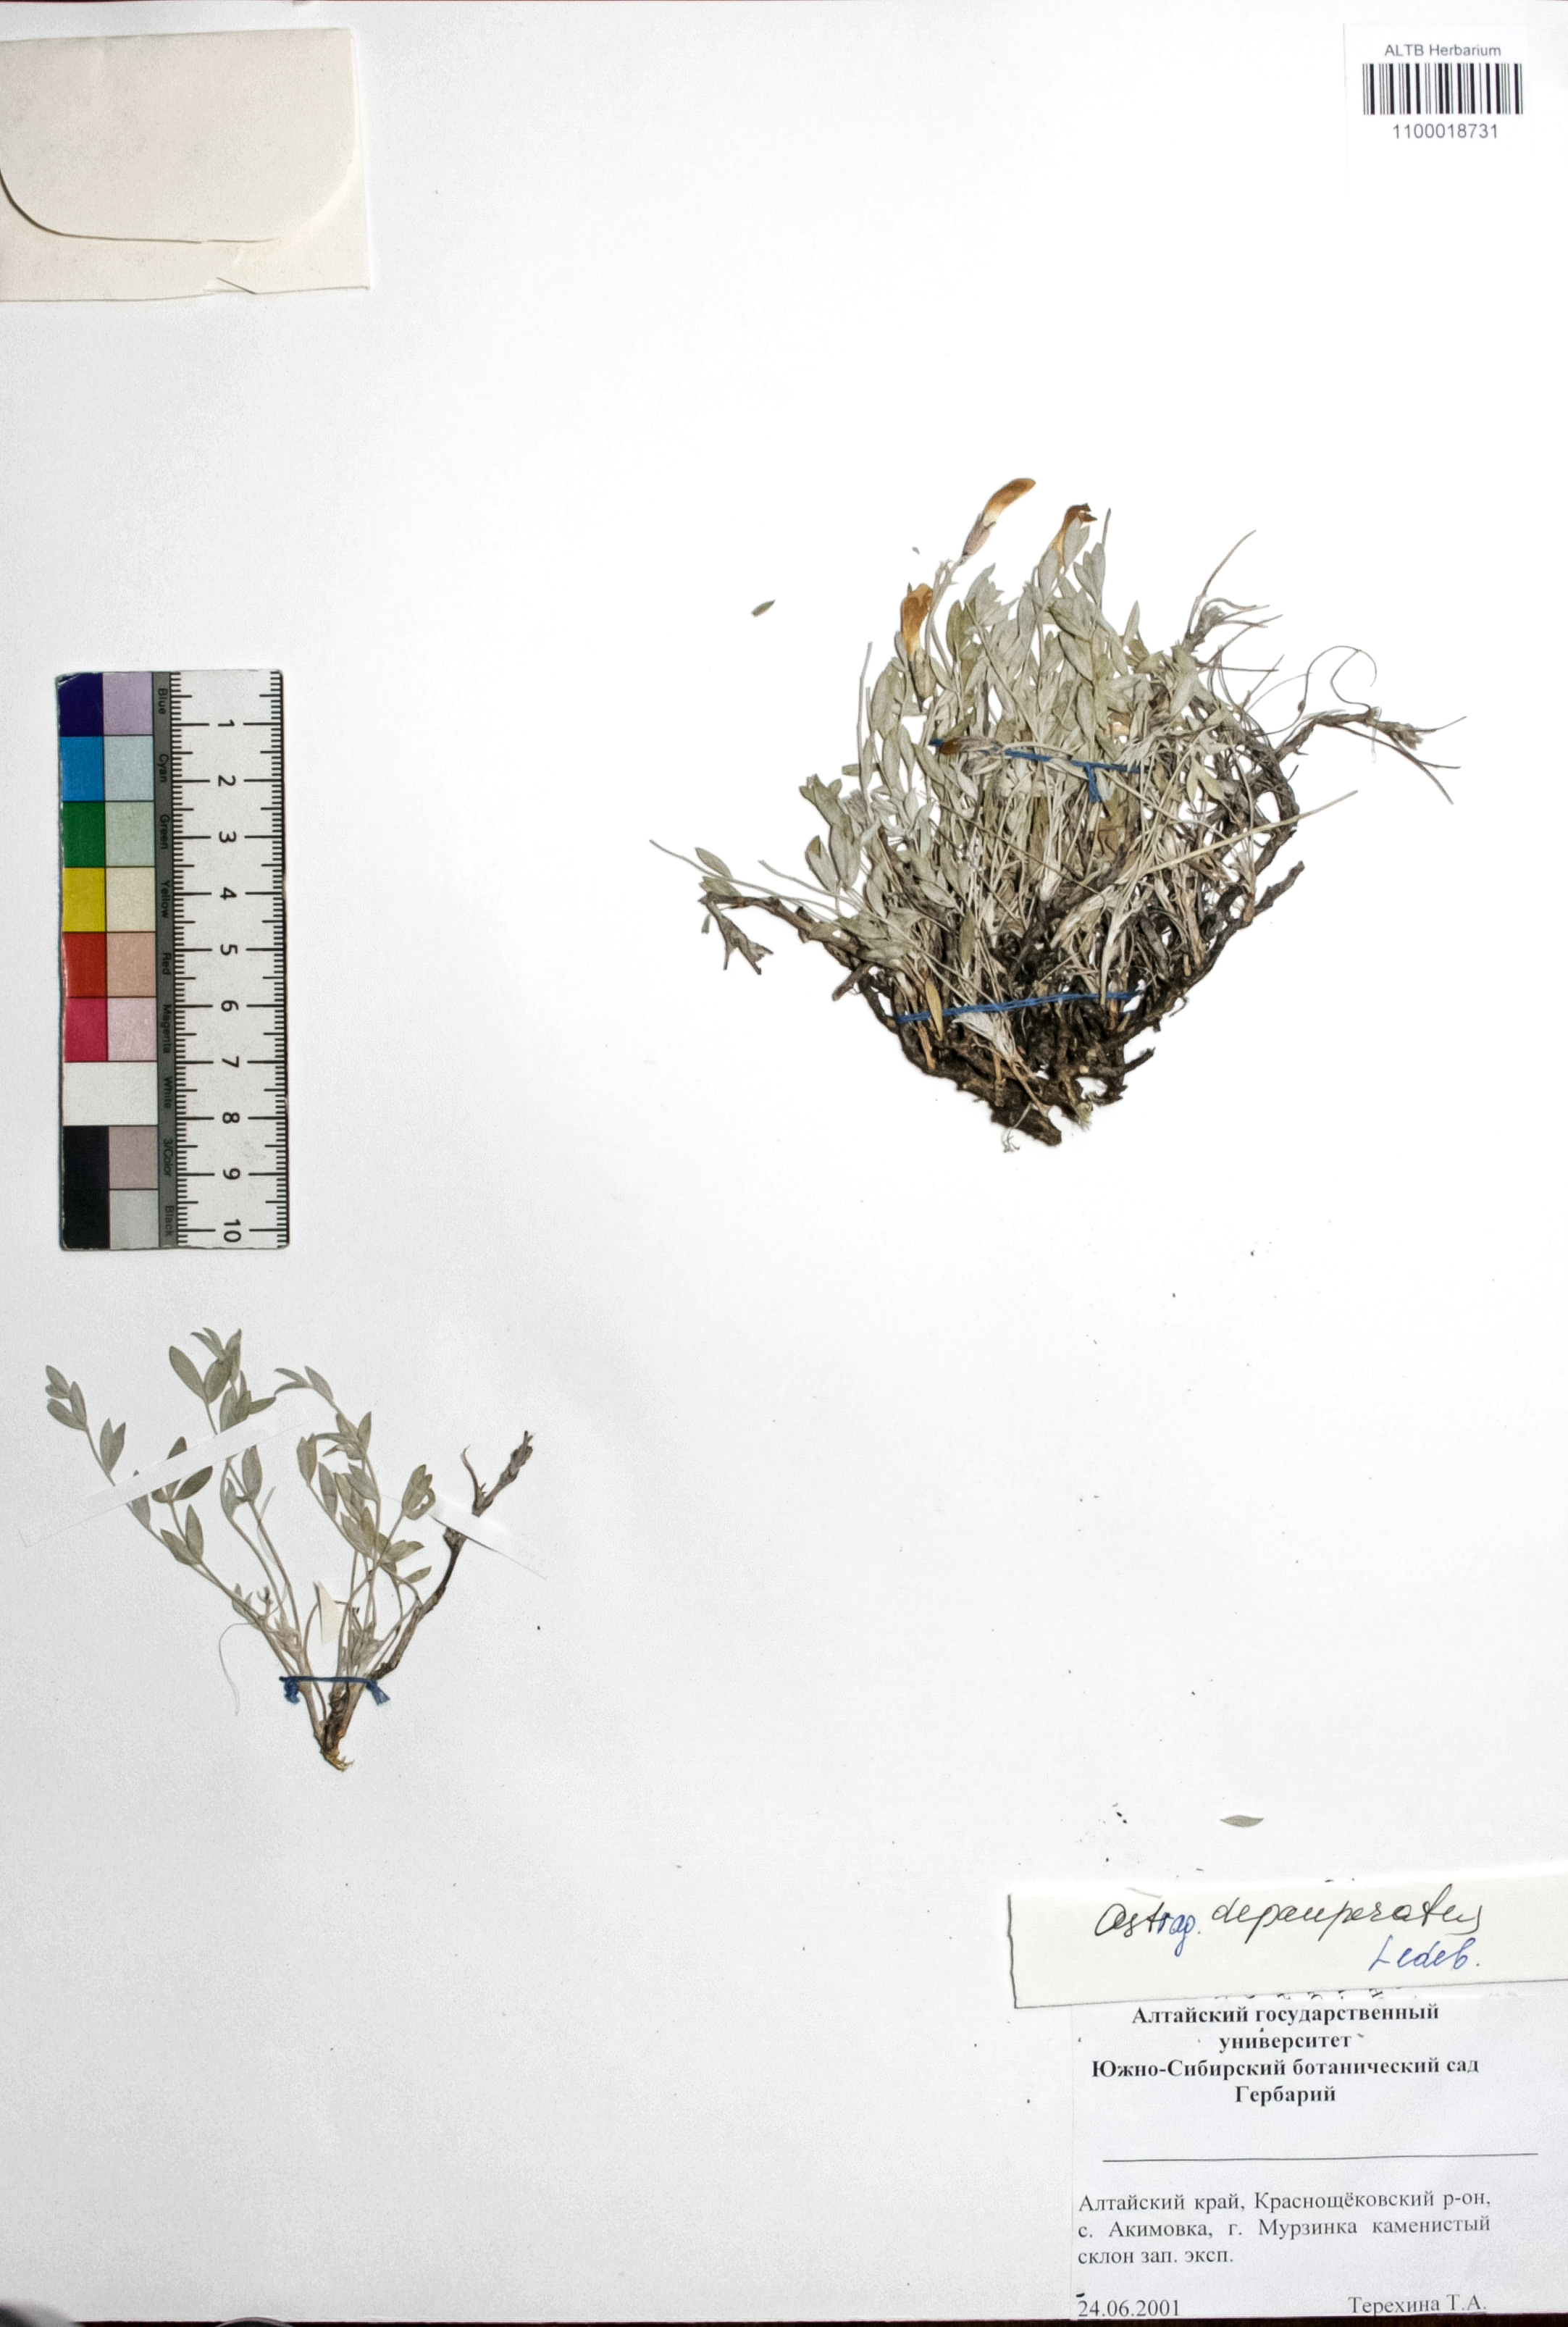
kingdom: Plantae
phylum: Tracheophyta
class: Magnoliopsida
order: Fabales
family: Fabaceae
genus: Astragalus
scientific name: Astragalus depauperatus
